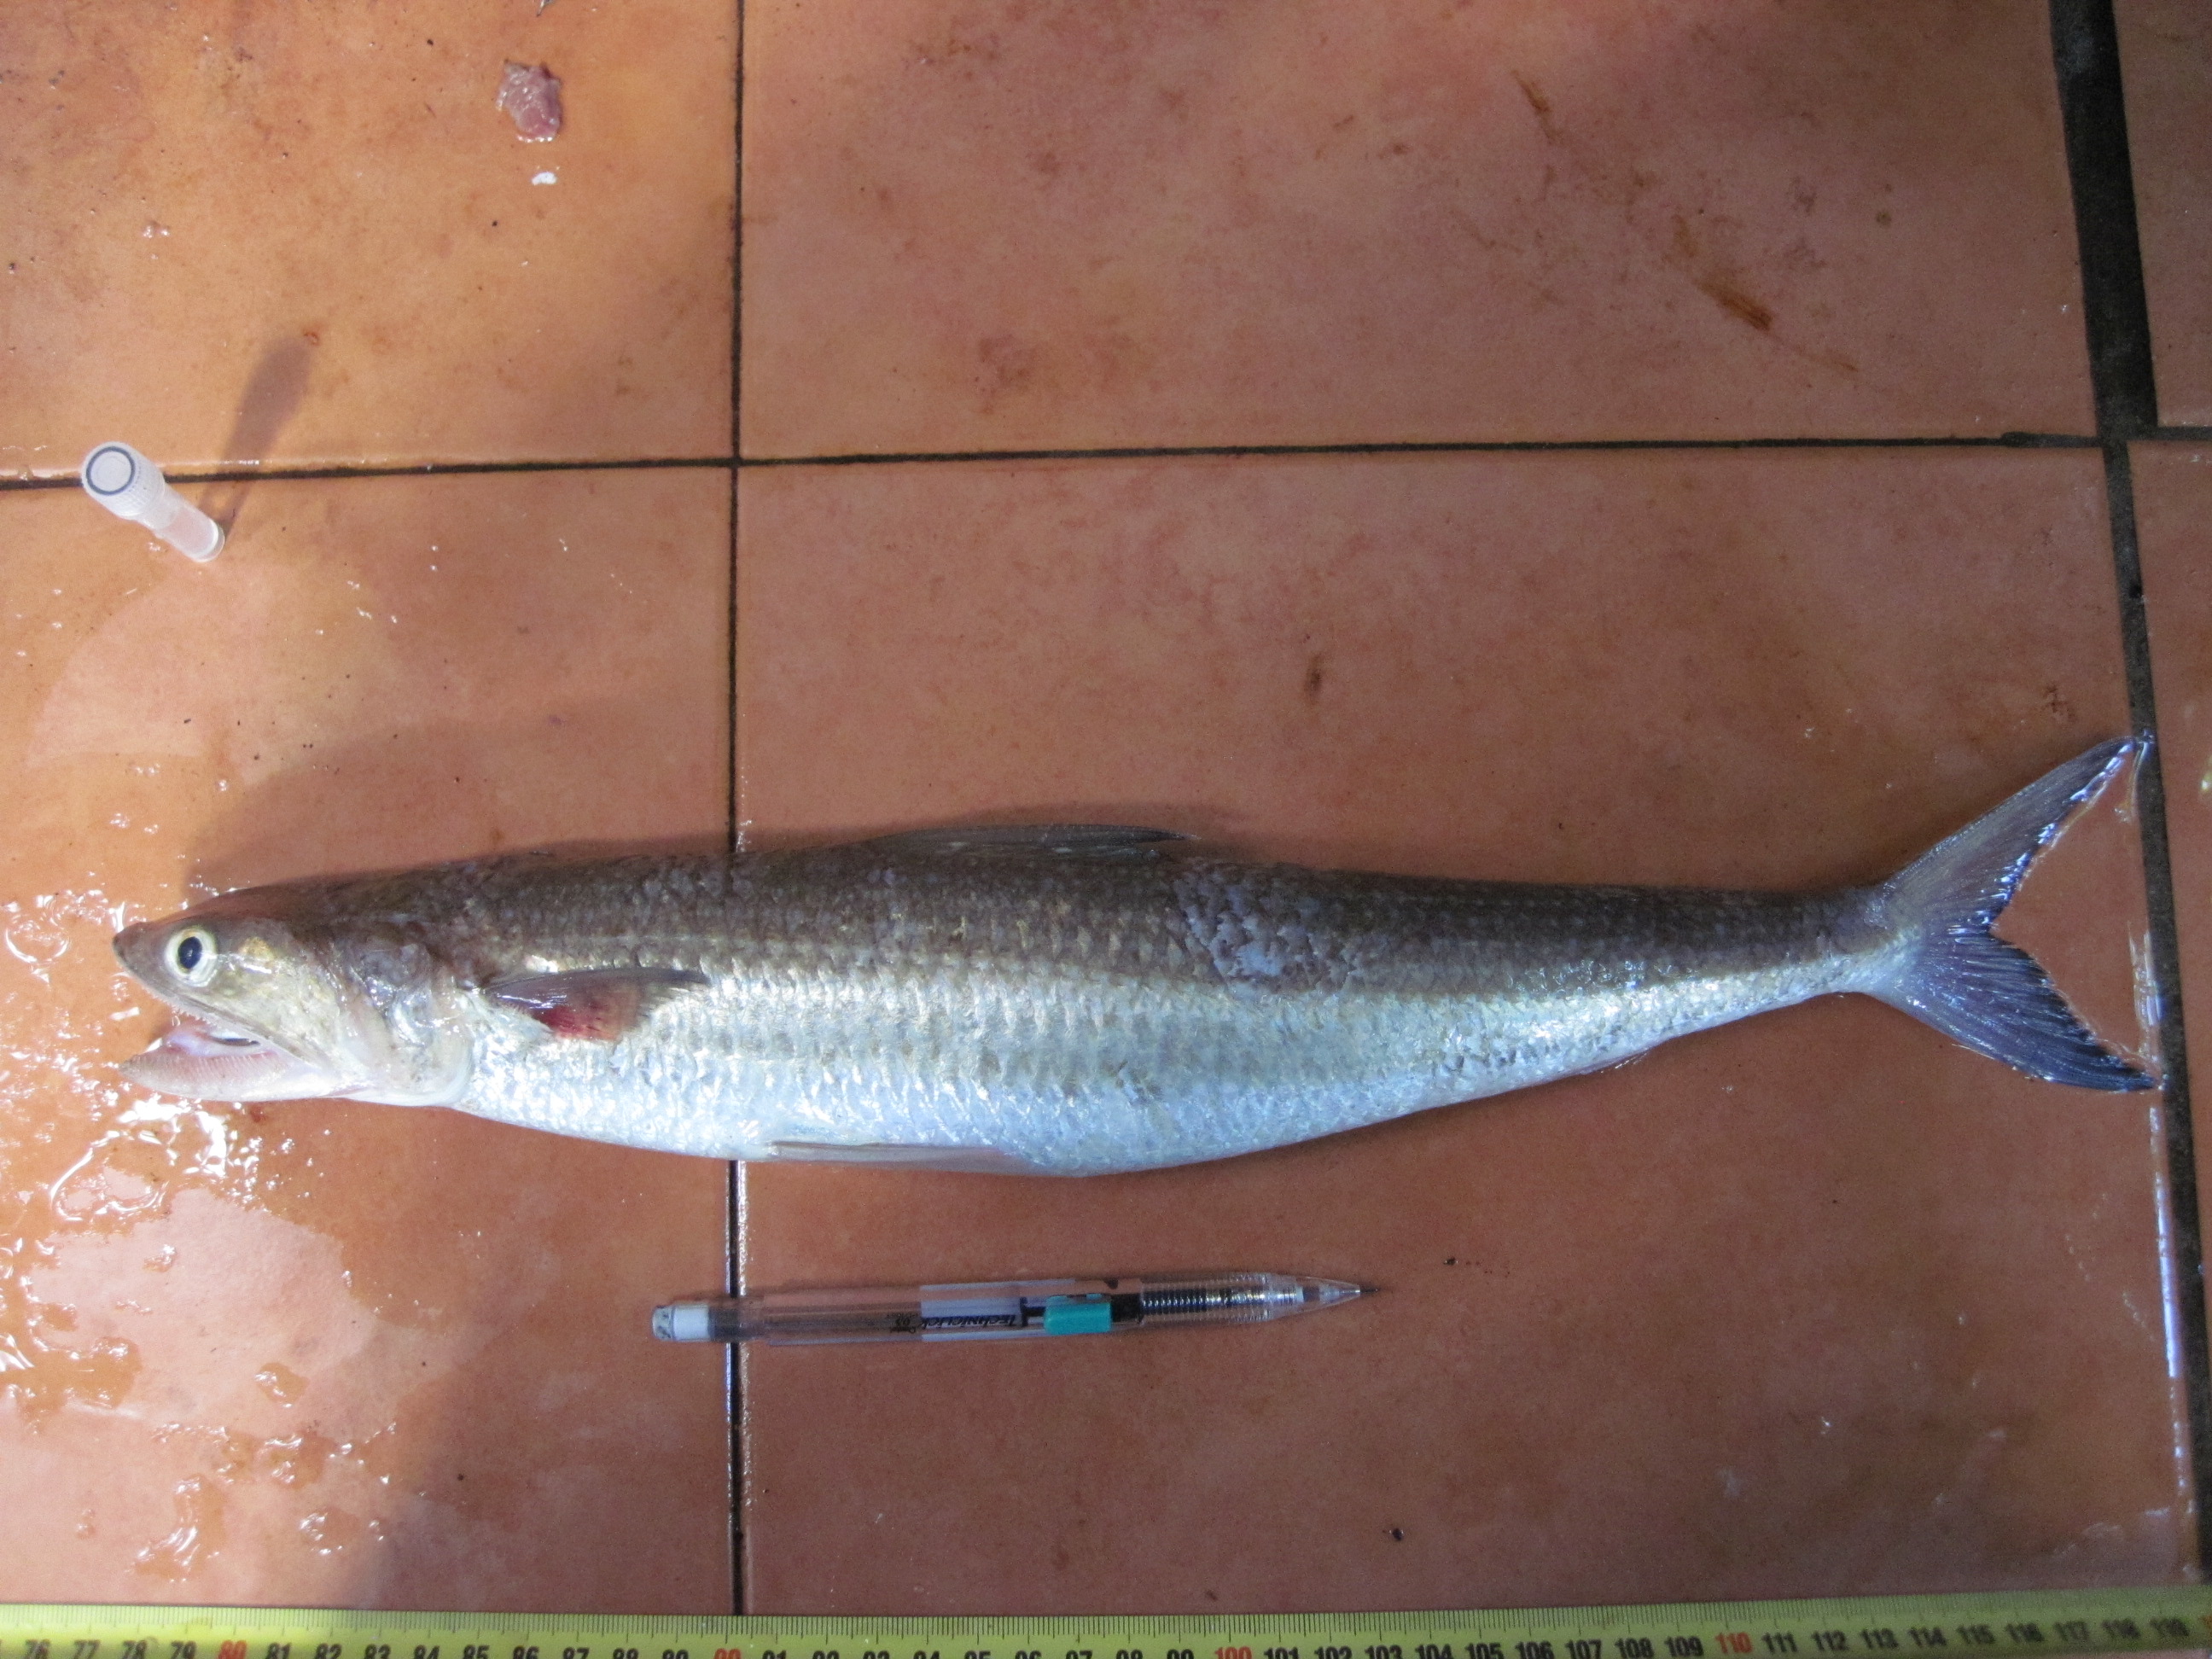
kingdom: Animalia
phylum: Chordata
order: Aulopiformes
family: Synodontidae
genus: Saurida
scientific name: Saurida undosquamis
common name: Brushtooth lizardfish
